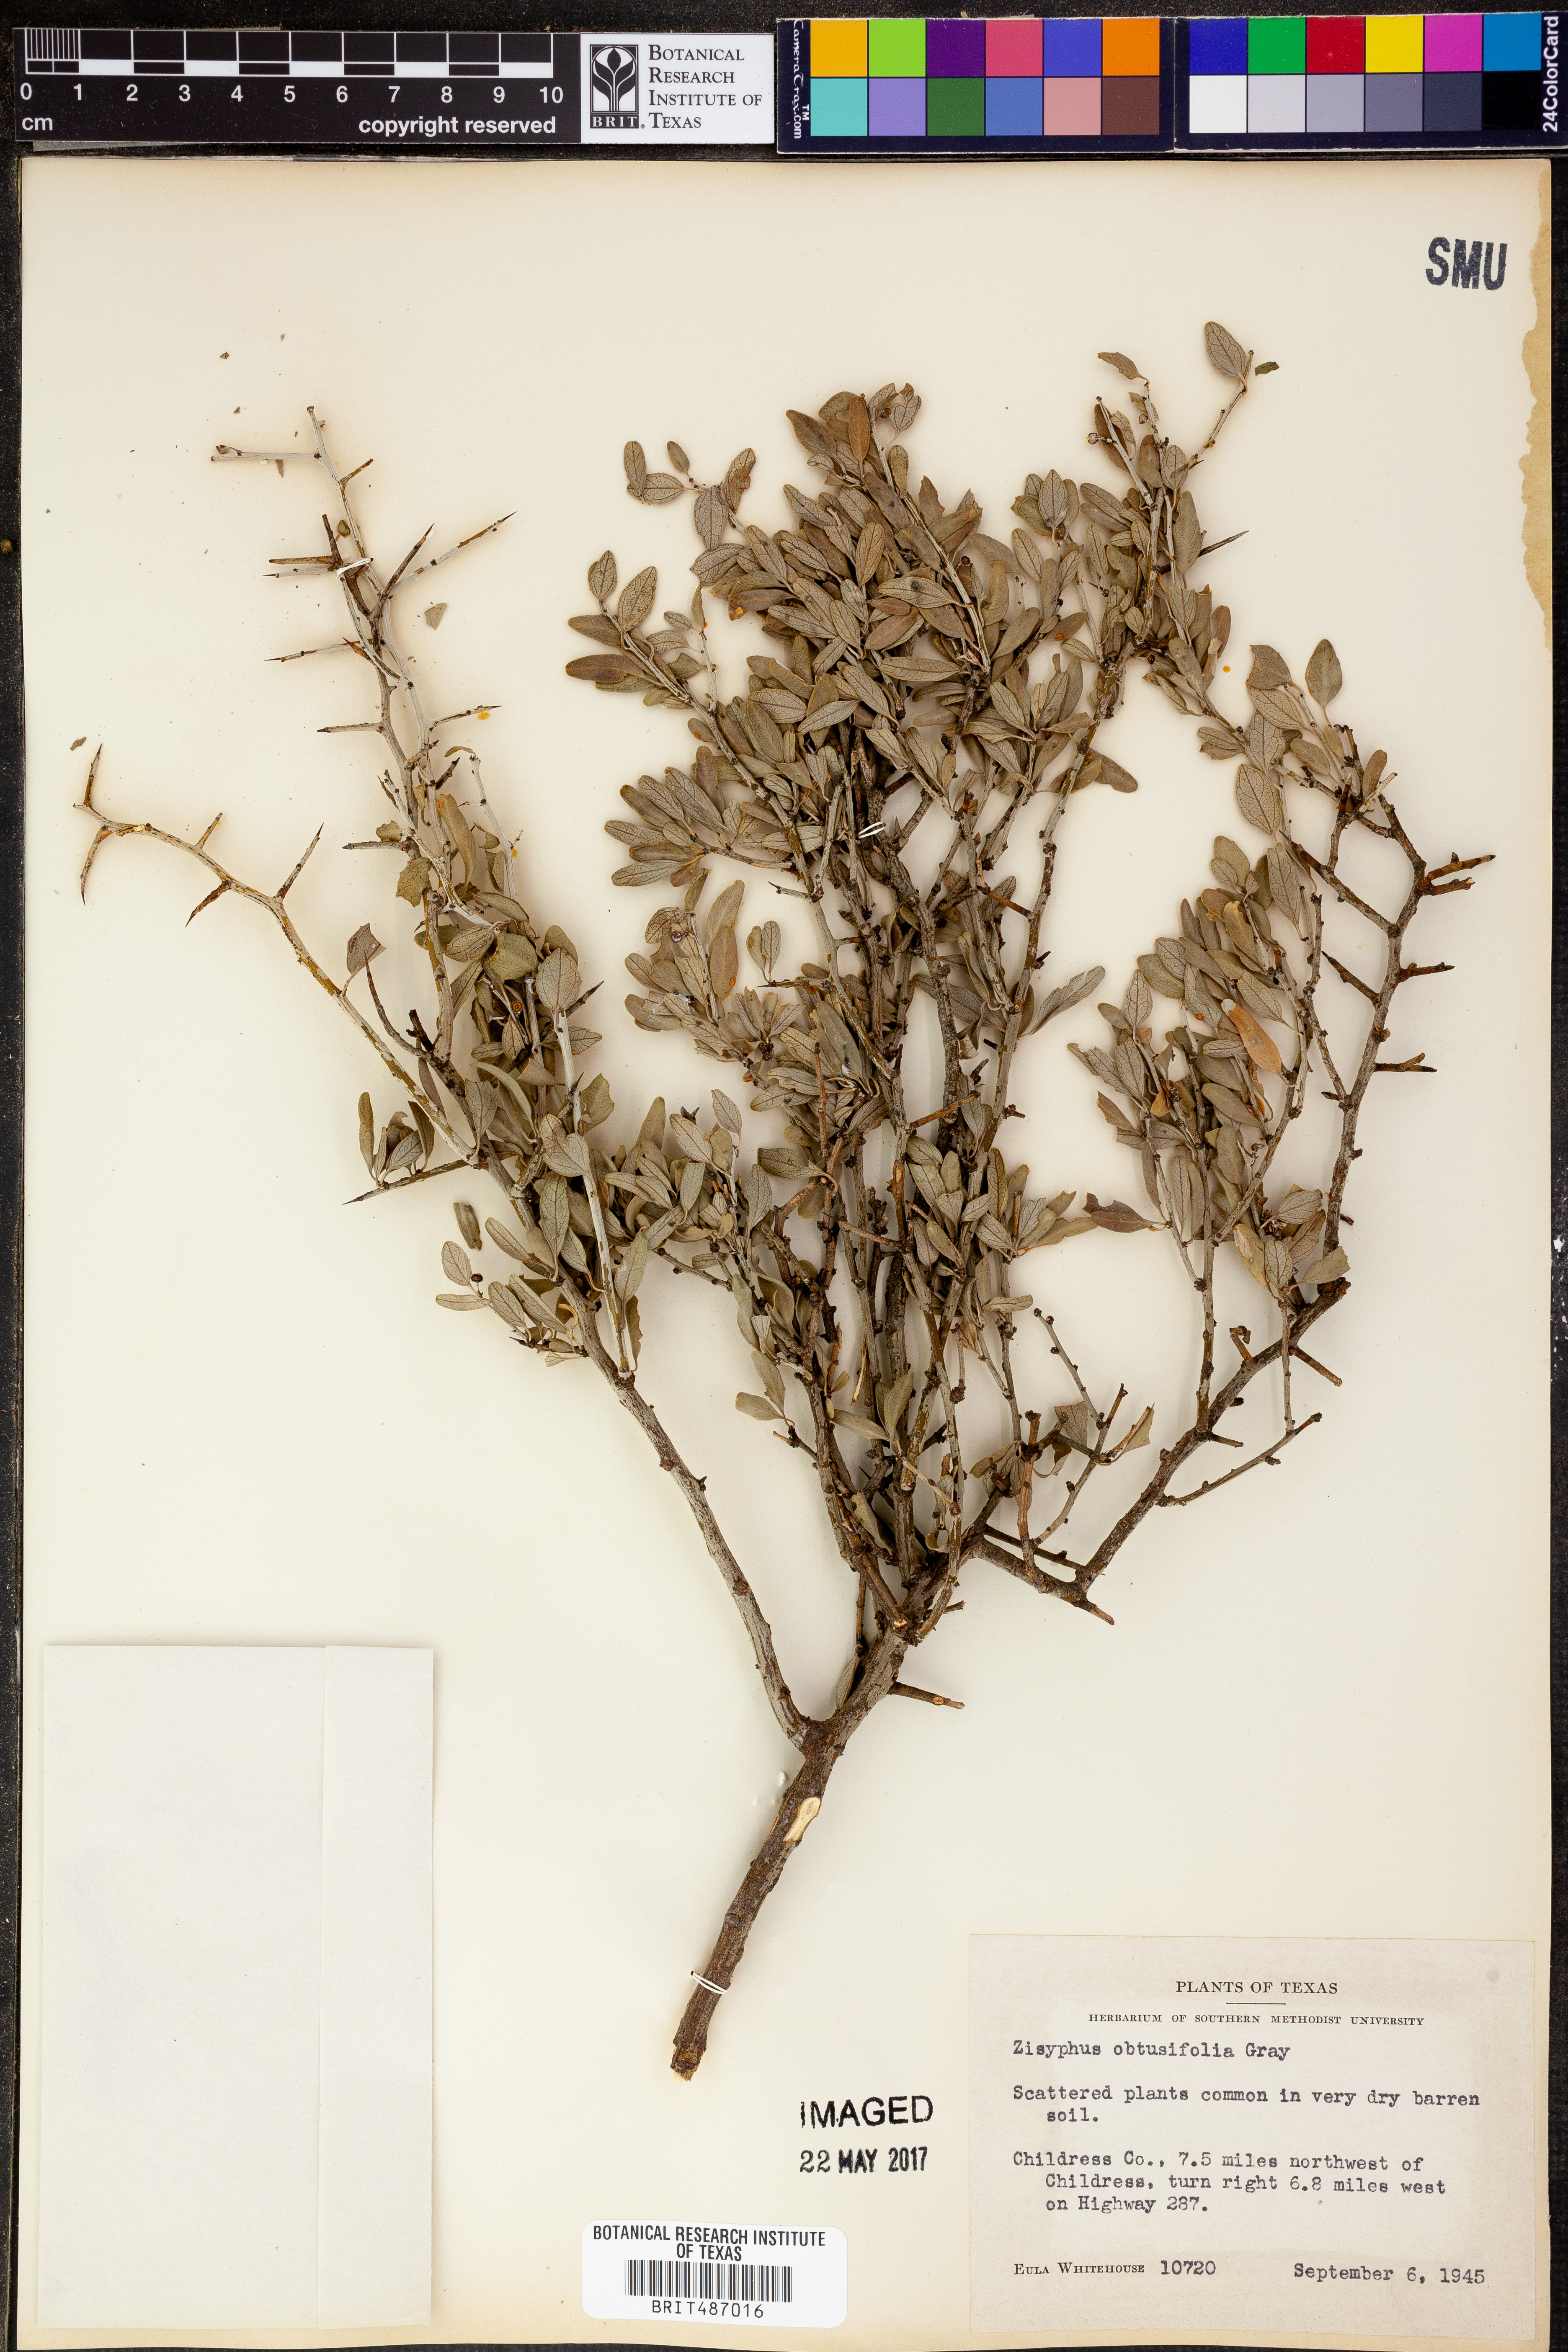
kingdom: Plantae
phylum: Tracheophyta
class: Magnoliopsida
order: Rosales
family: Rhamnaceae
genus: Sarcomphalus
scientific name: Sarcomphalus obtusifolius
